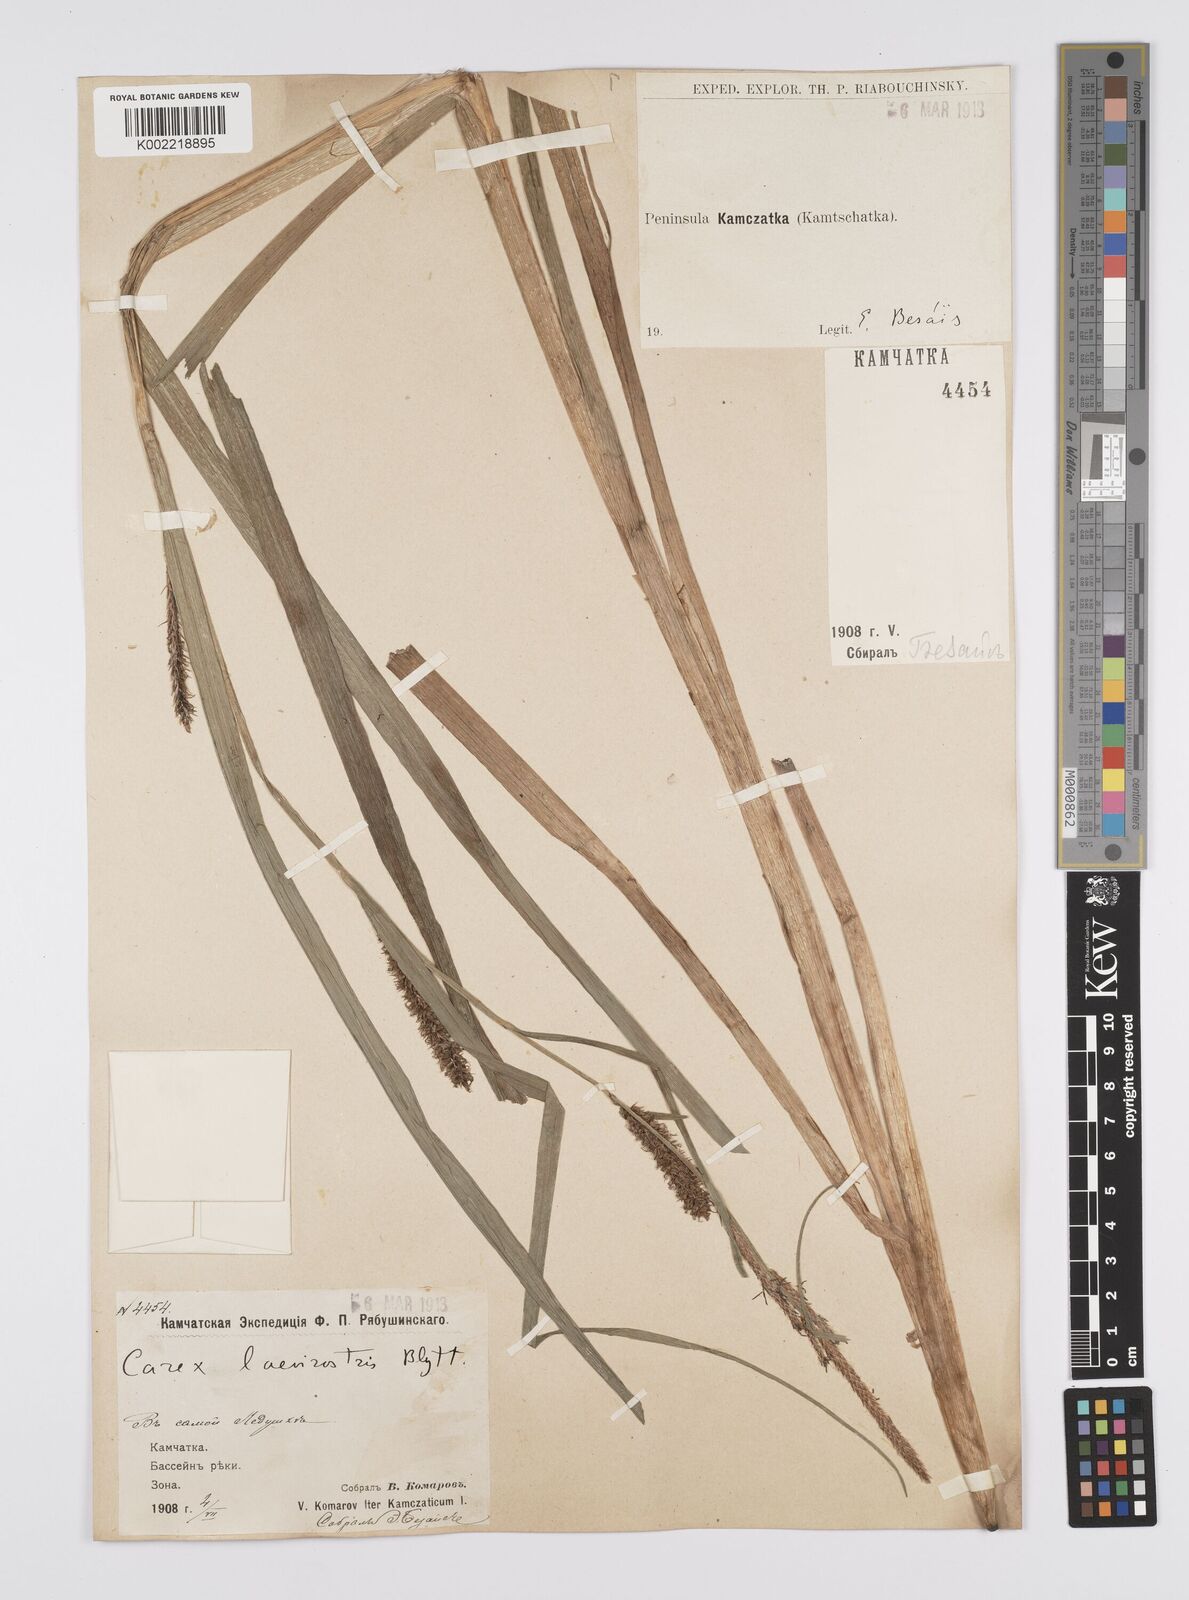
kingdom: Plantae
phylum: Tracheophyta
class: Liliopsida
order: Poales
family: Cyperaceae
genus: Carex
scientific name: Carex utriculata
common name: Beaked sedge
